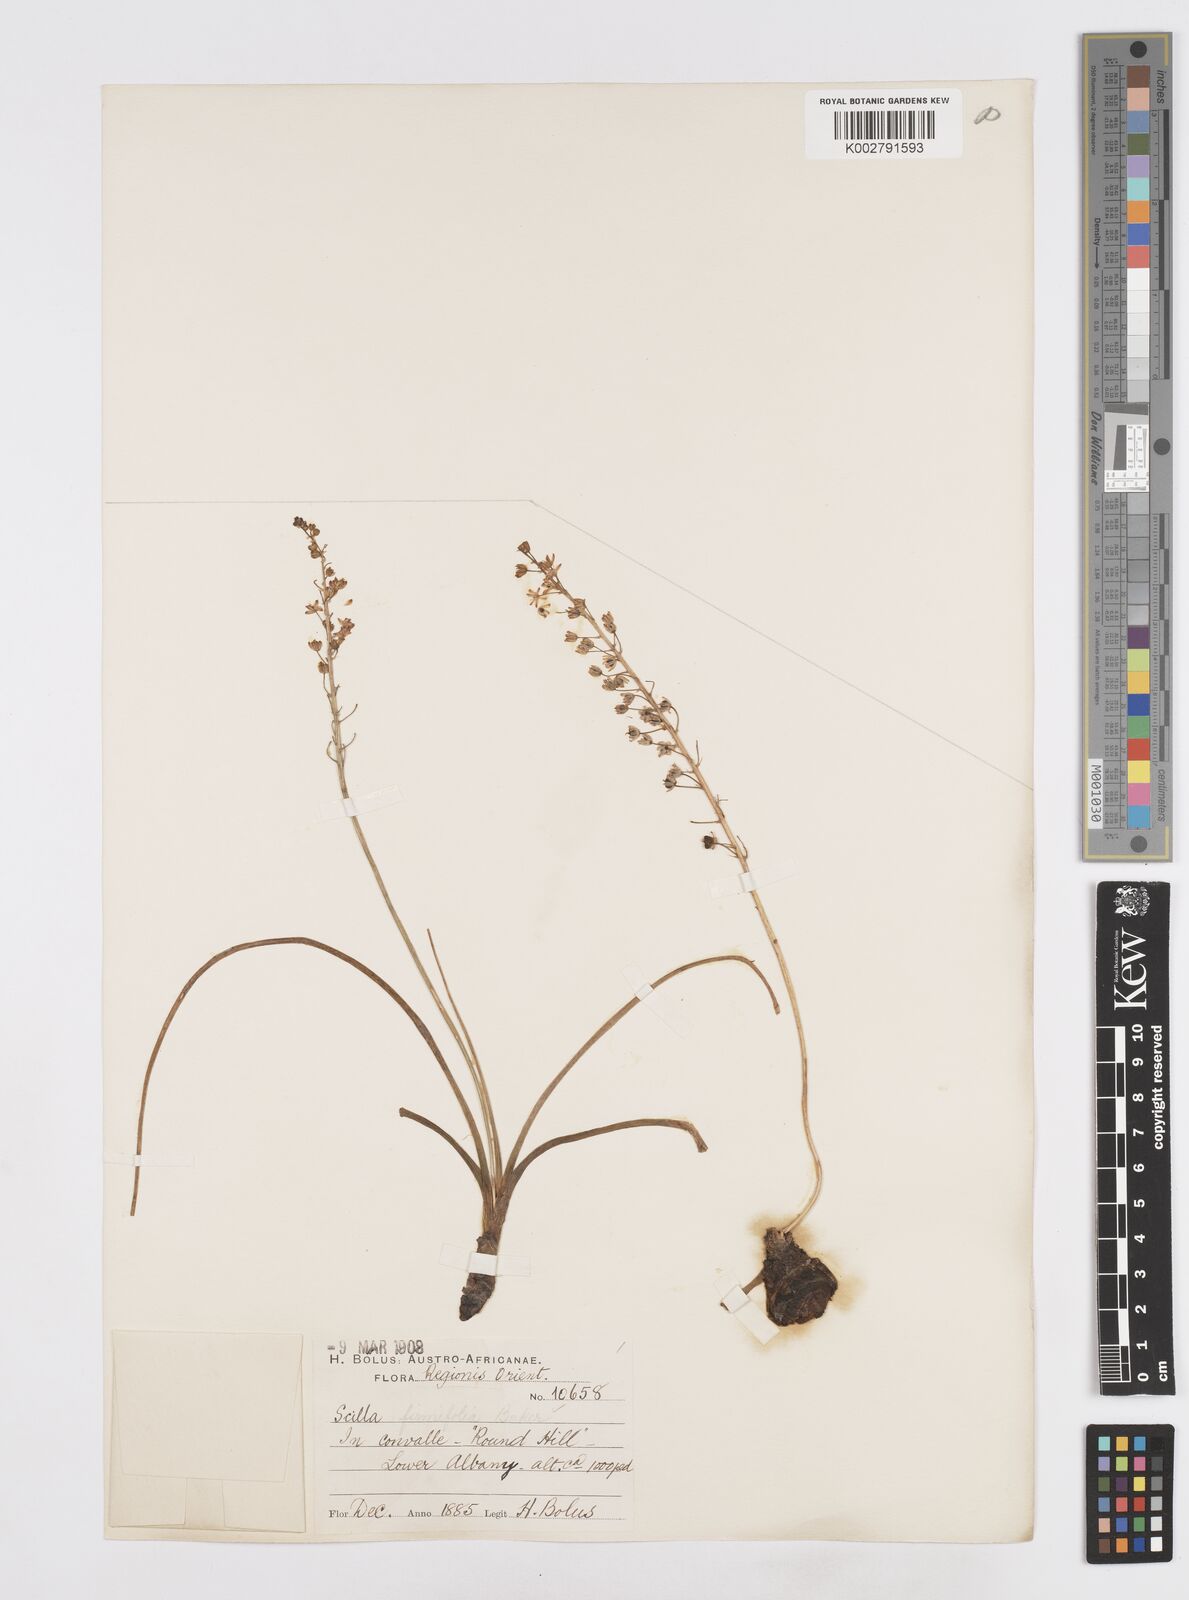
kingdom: Plantae
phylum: Tracheophyta
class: Liliopsida
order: Asparagales
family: Asparagaceae
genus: Pseudoprospero
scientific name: Pseudoprospero firmifolium
